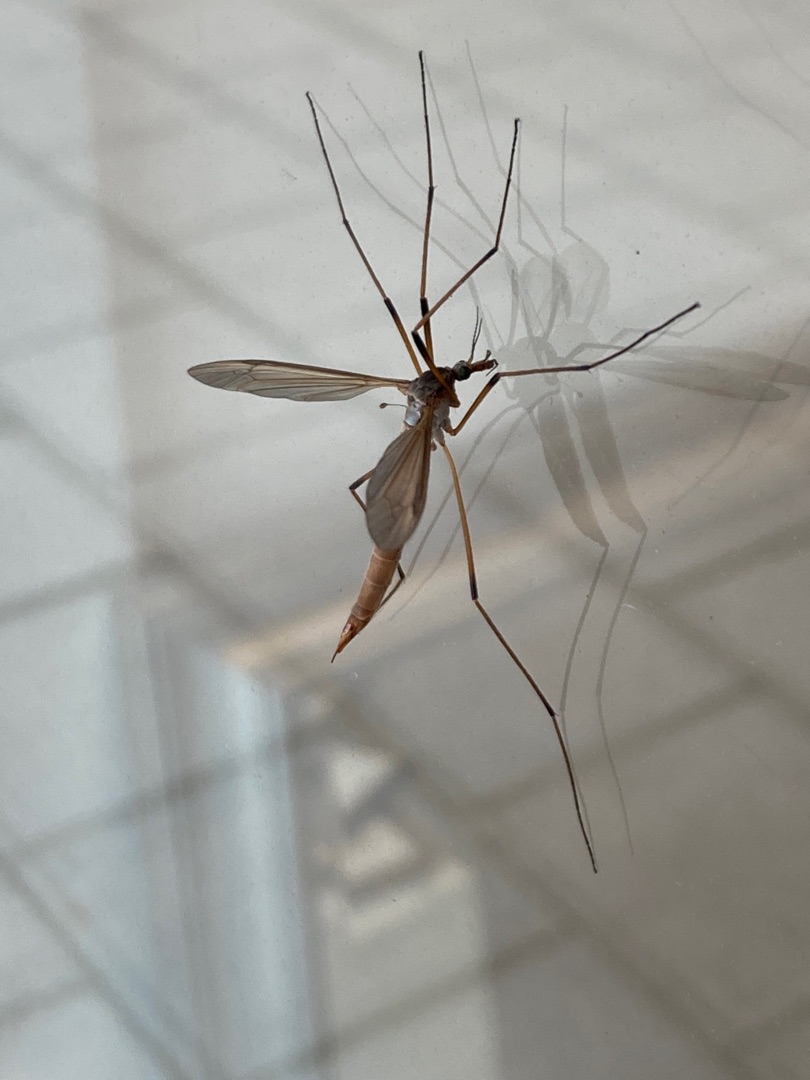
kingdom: Animalia
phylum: Arthropoda
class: Insecta
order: Diptera
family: Tipulidae
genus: Tipula
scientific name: Tipula paludosa
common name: Mosestankelben
